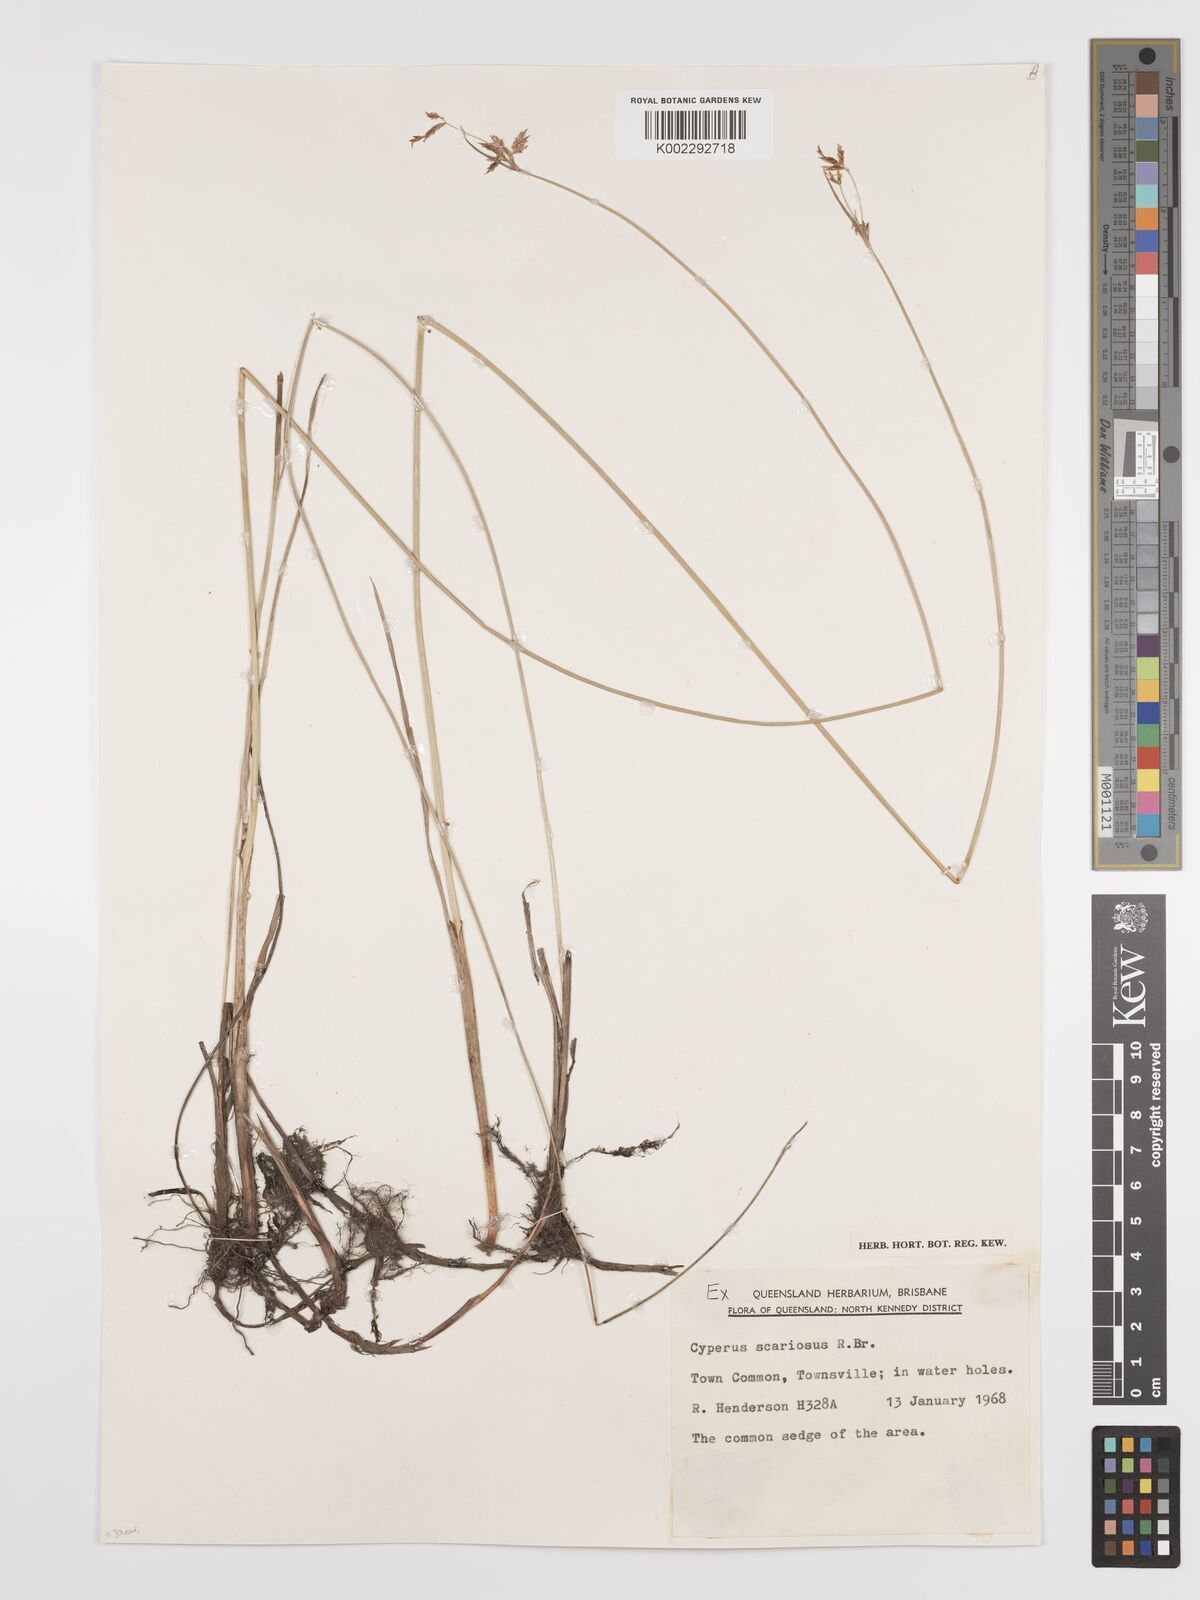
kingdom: Plantae
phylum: Tracheophyta
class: Liliopsida
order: Poales
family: Cyperaceae
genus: Cyperus
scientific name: Cyperus scariosus
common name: Cypriol
